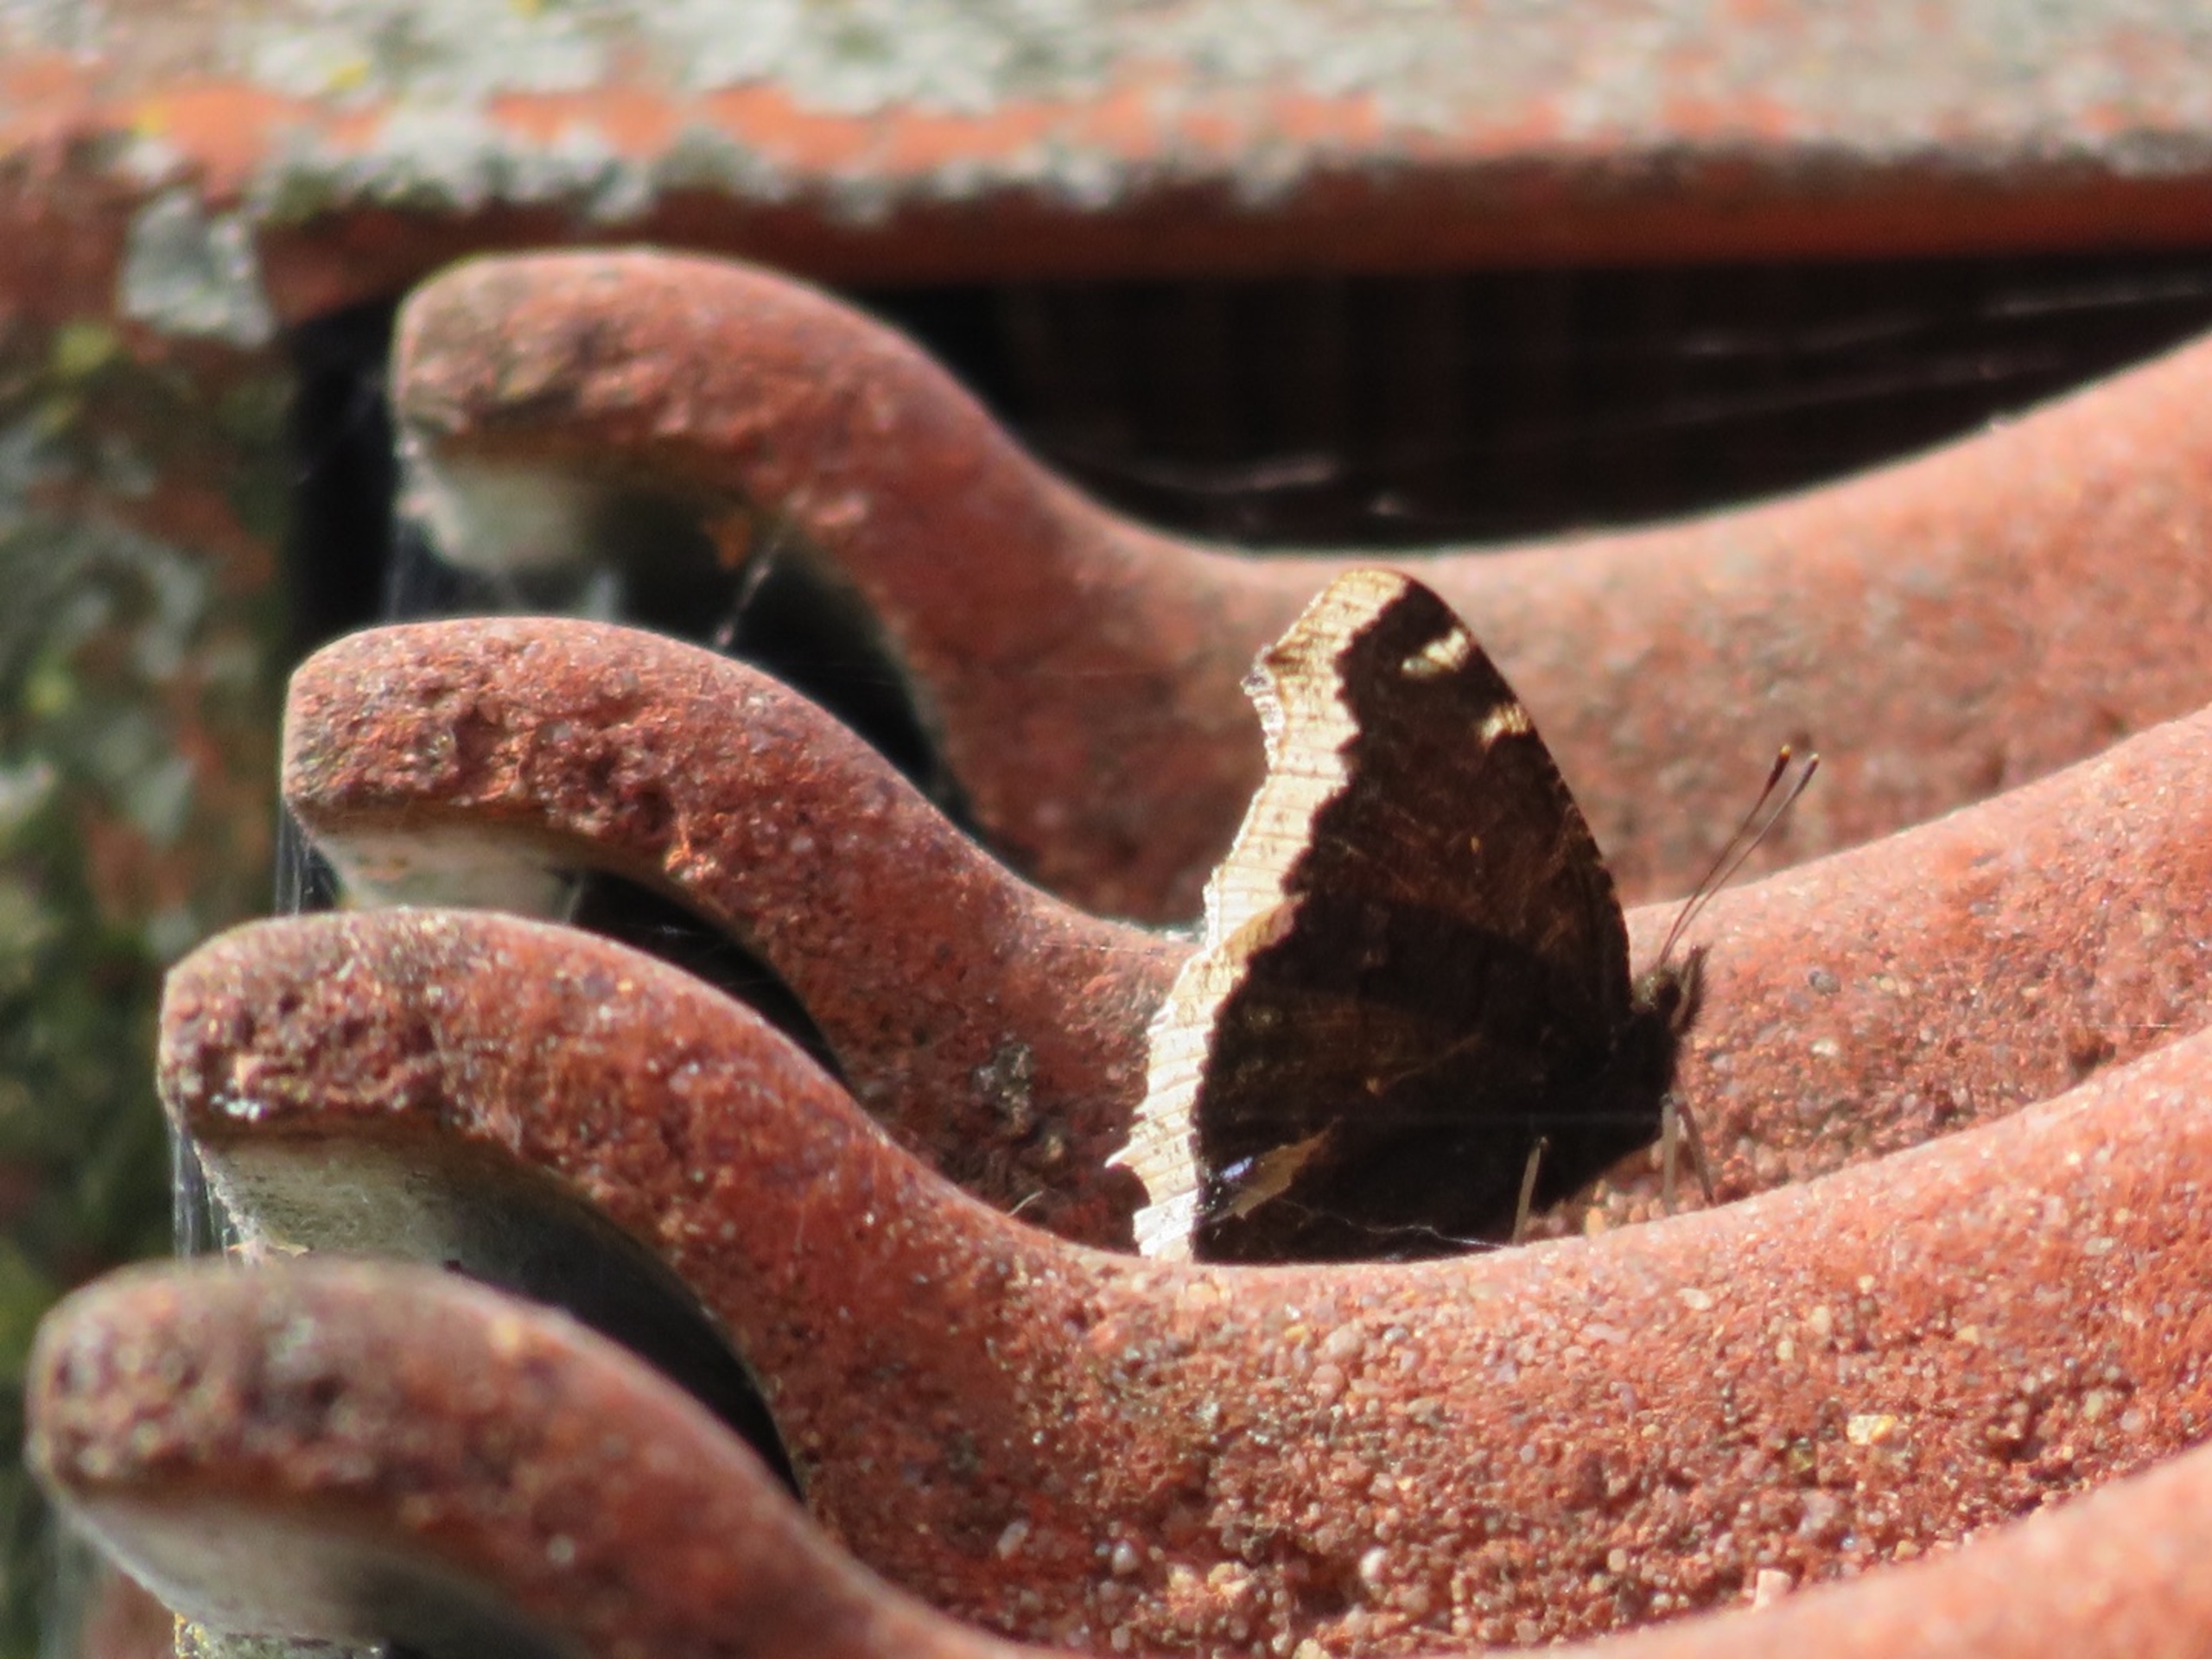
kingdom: Animalia
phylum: Arthropoda
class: Insecta
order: Lepidoptera
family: Nymphalidae
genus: Nymphalis
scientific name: Nymphalis antiopa
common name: Sørgekåbe
